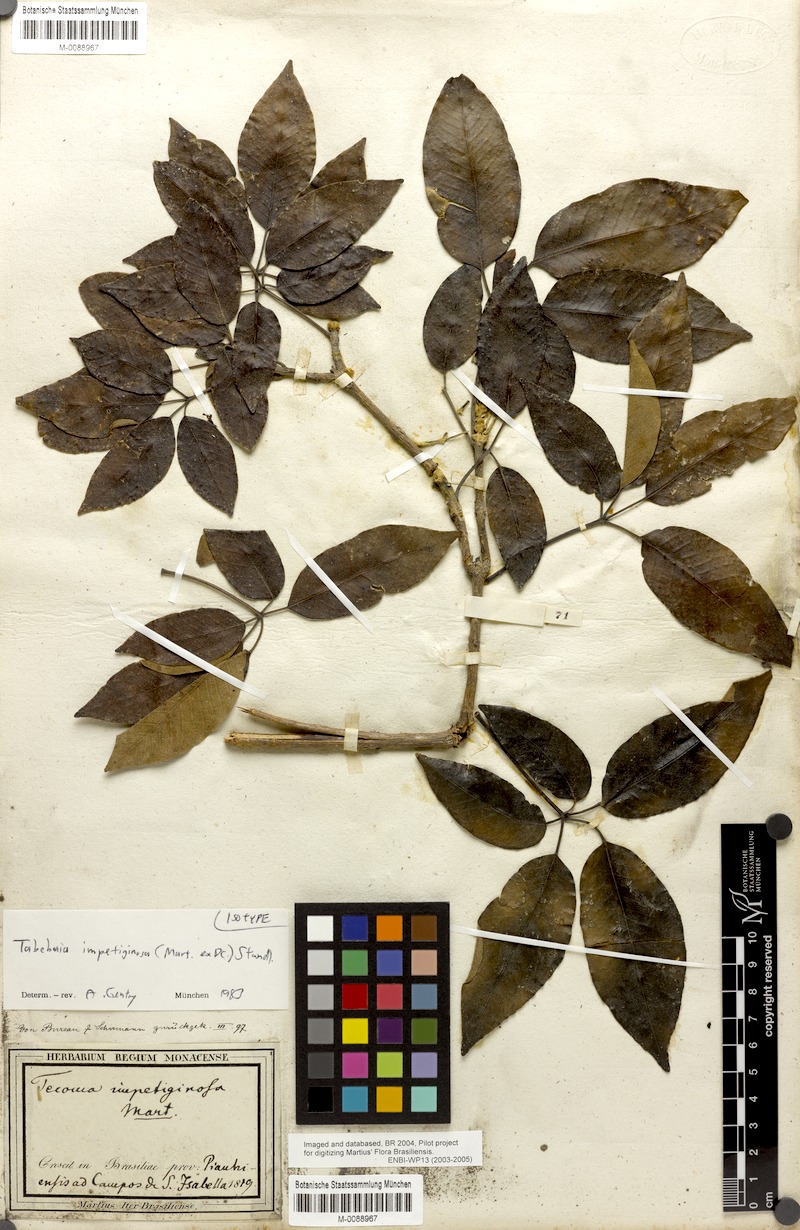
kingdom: Plantae
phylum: Tracheophyta
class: Magnoliopsida
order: Lamiales
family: Bignoniaceae
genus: Handroanthus
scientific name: Handroanthus impetiginosum
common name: Pink trumpet tree
